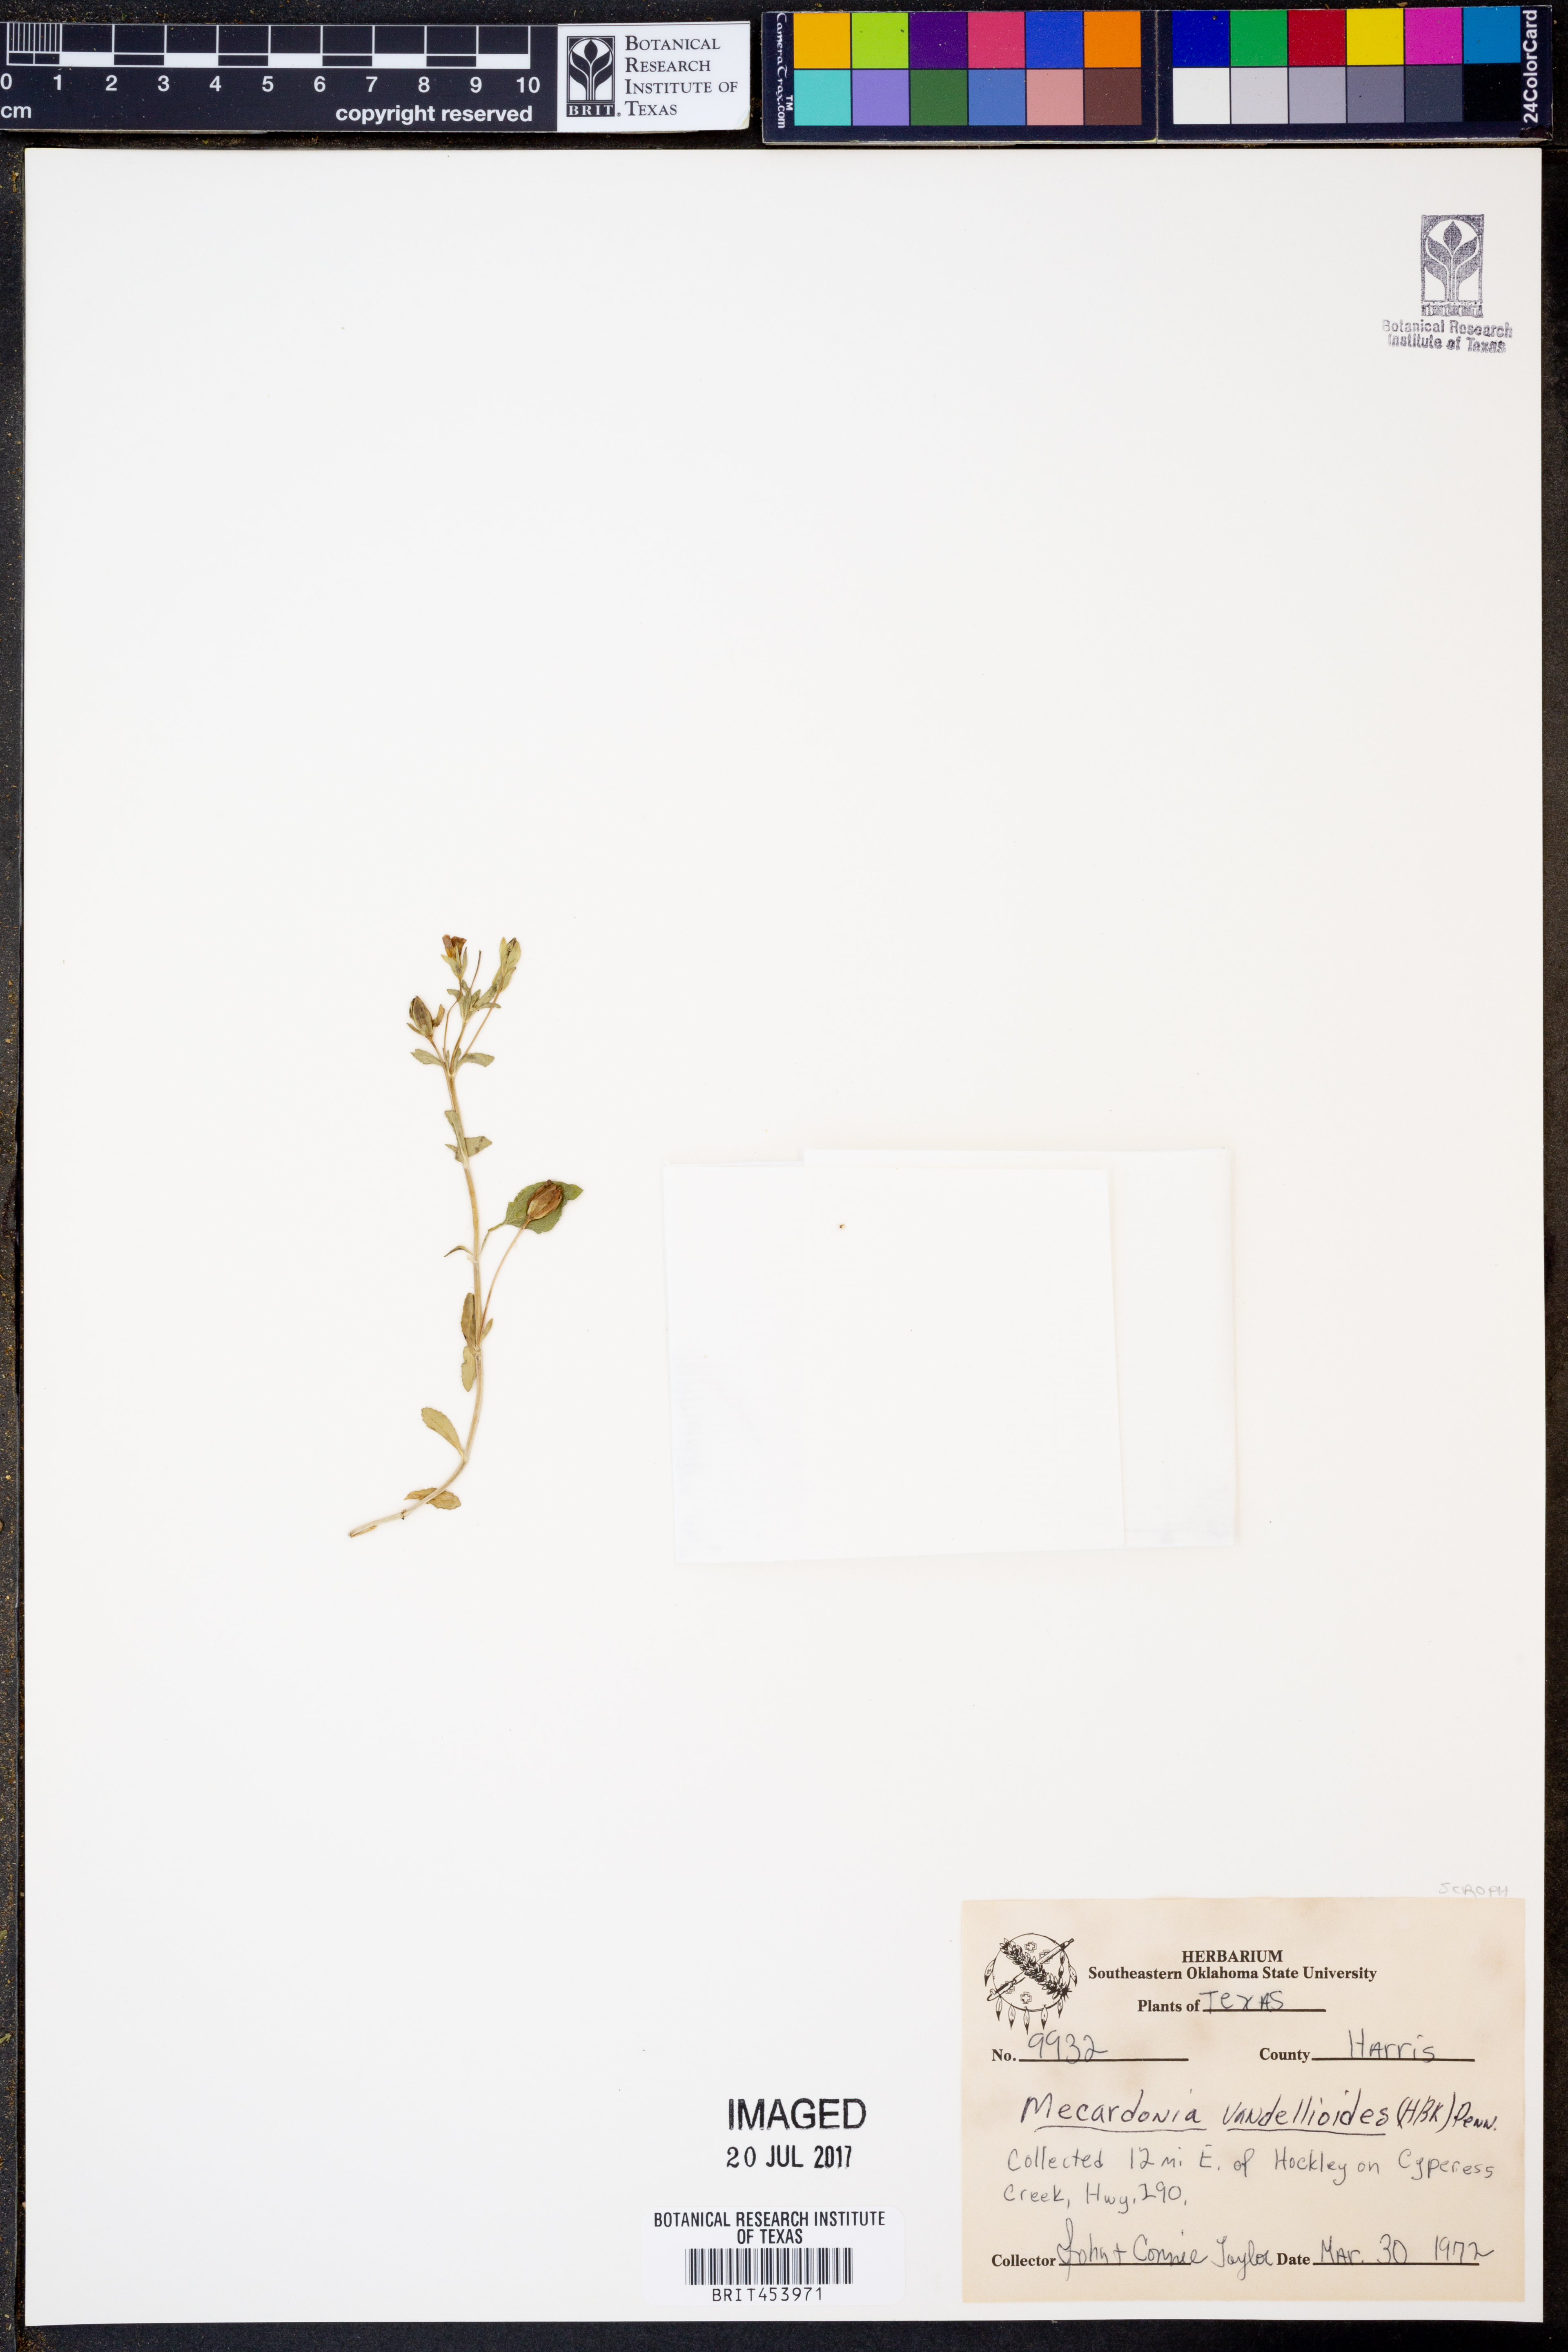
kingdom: Plantae
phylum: Tracheophyta
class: Magnoliopsida
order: Lamiales
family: Plantaginaceae
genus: Mecardonia
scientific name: Mecardonia procumbens
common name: Baby jump-up
